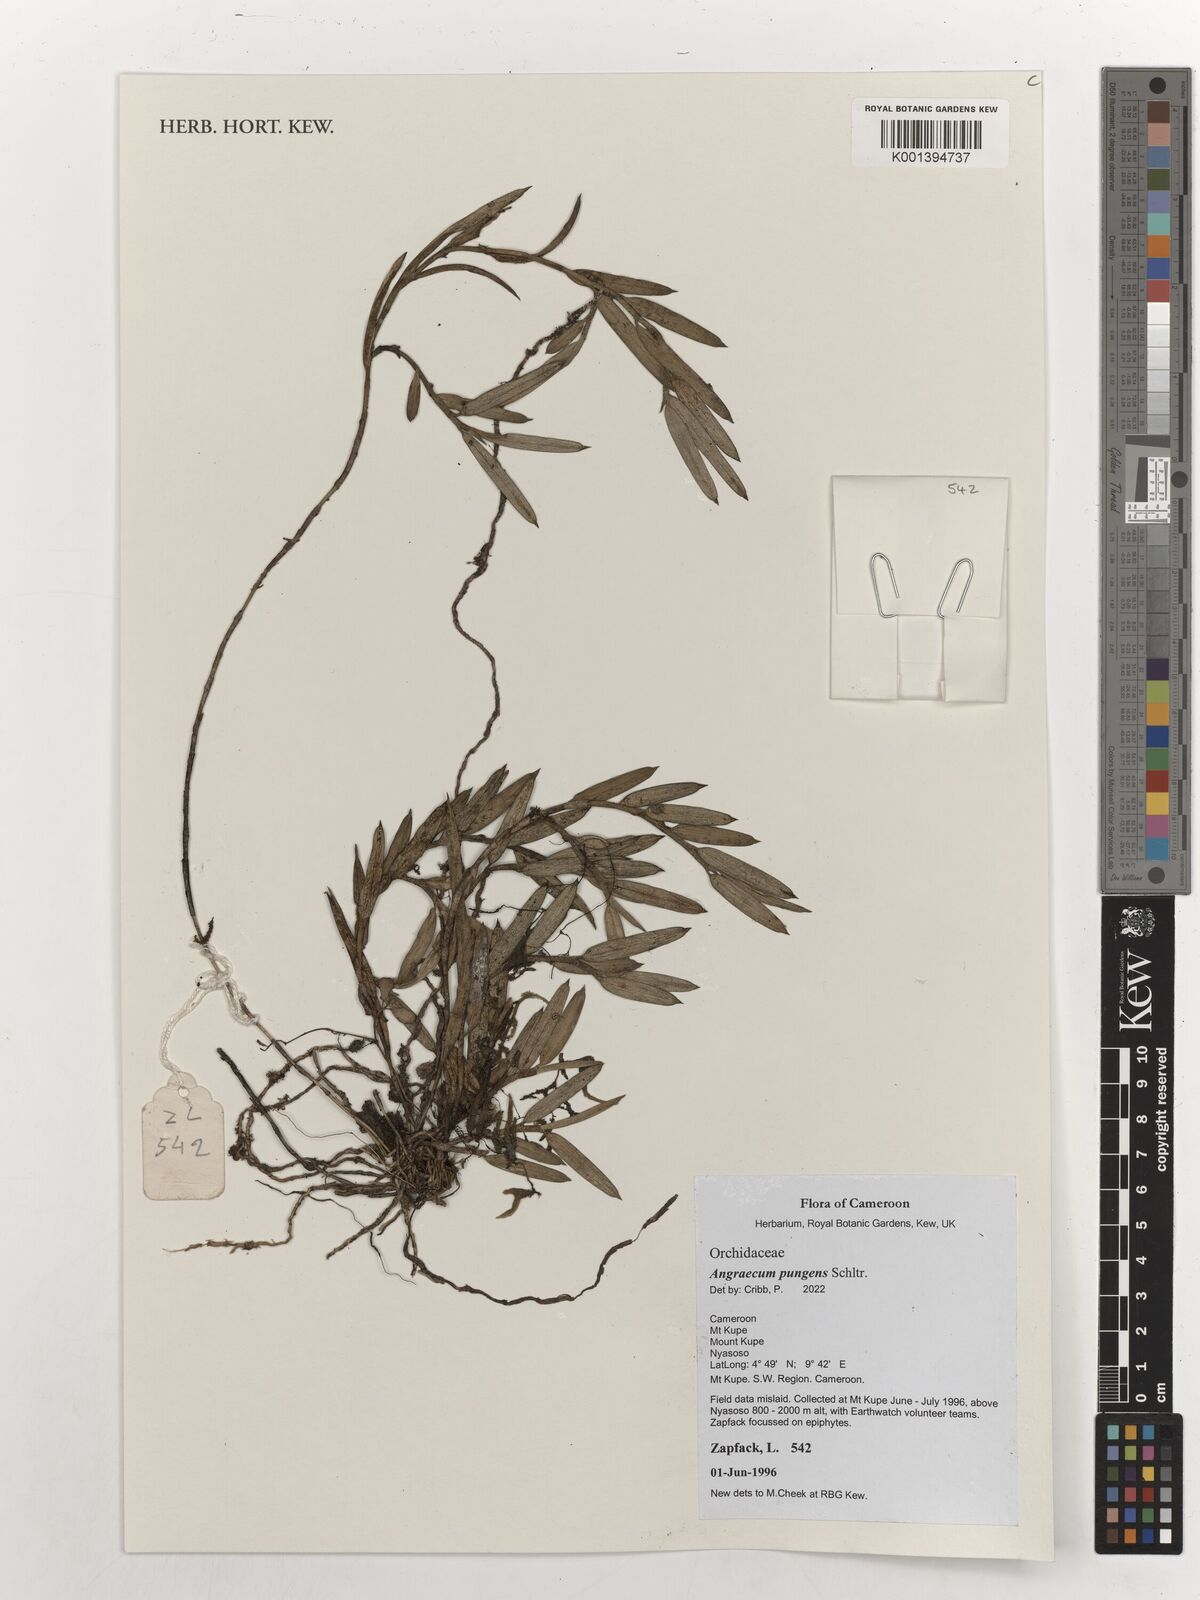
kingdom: Plantae
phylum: Tracheophyta
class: Liliopsida
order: Asparagales
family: Orchidaceae
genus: Afropectinariella
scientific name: Afropectinariella pungens
